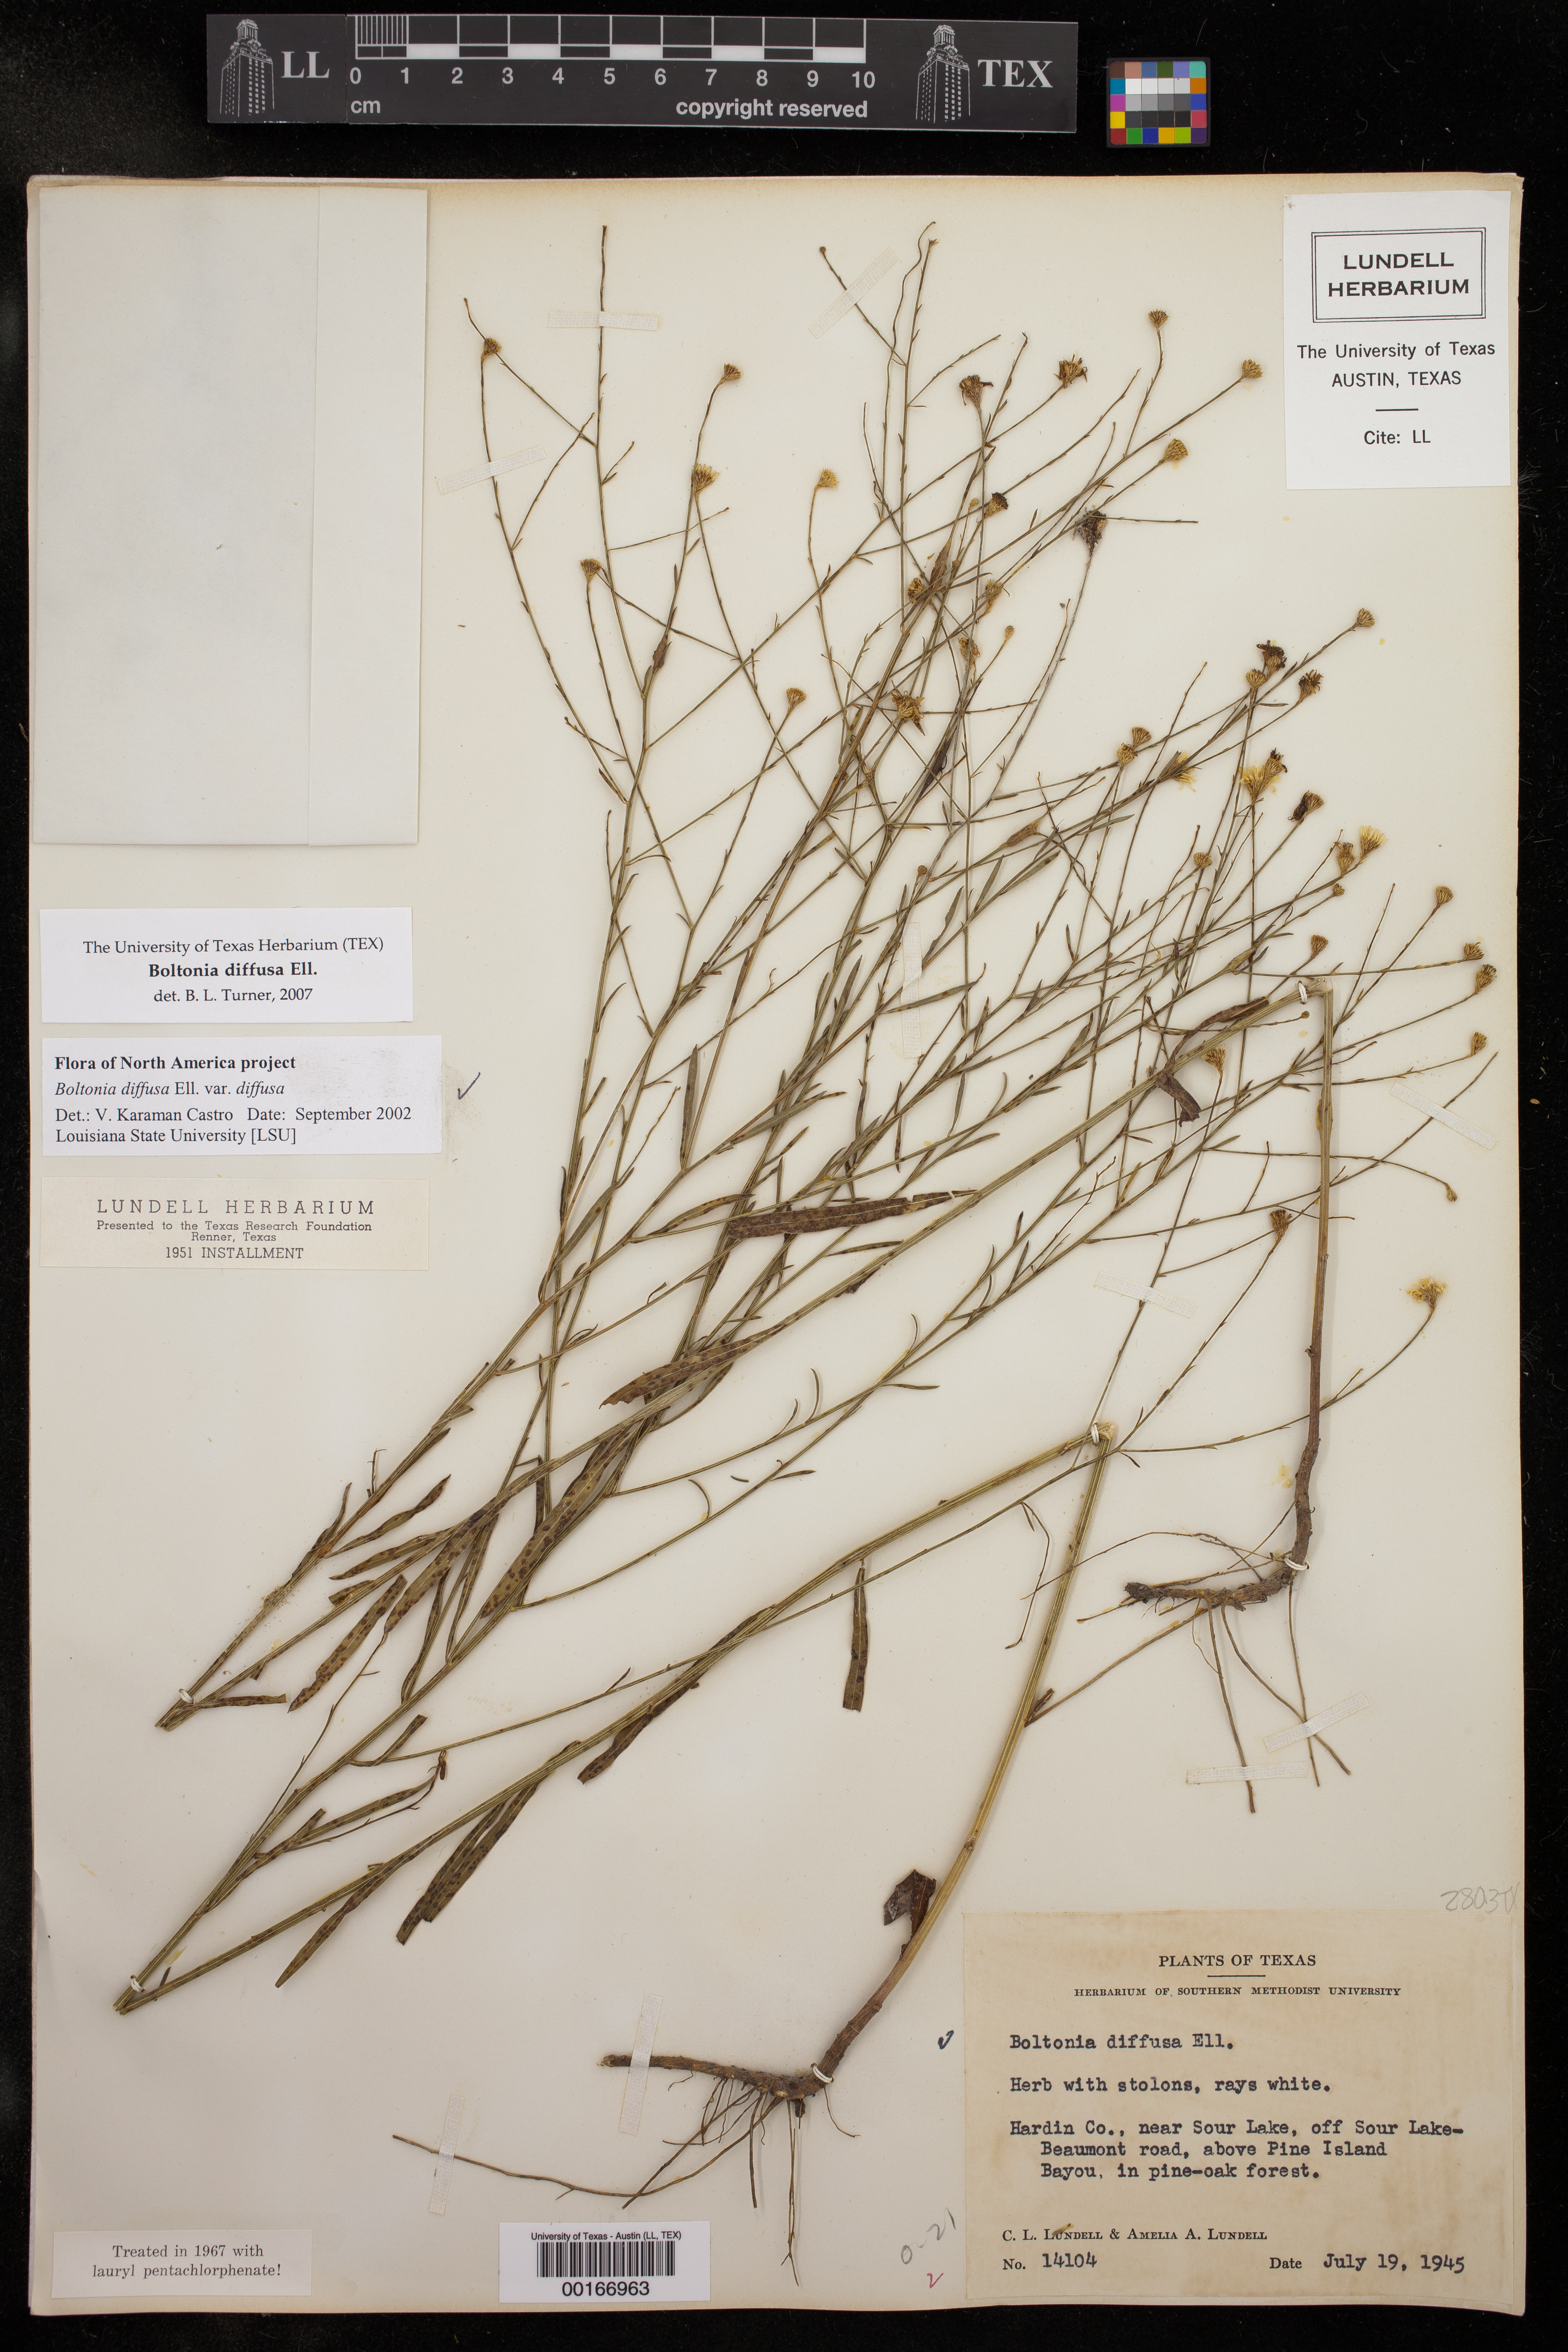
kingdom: Plantae
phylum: Tracheophyta
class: Magnoliopsida
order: Asterales
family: Asteraceae
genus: Boltonia
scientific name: Boltonia diffusa
